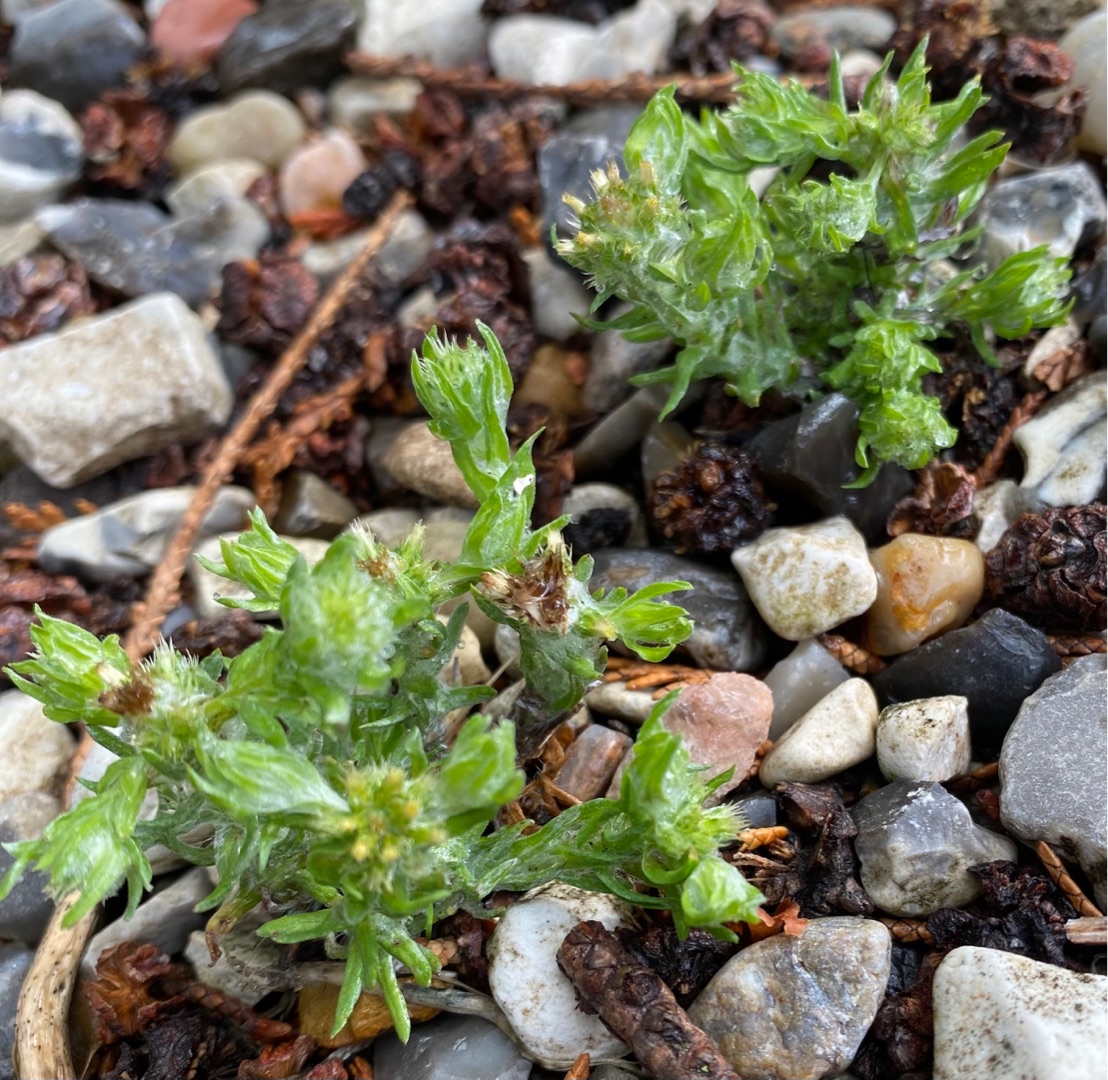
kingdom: Plantae
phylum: Tracheophyta
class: Magnoliopsida
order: Asterales
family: Asteraceae
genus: Filago
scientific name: Filago germanica
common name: Kugle-museurt
